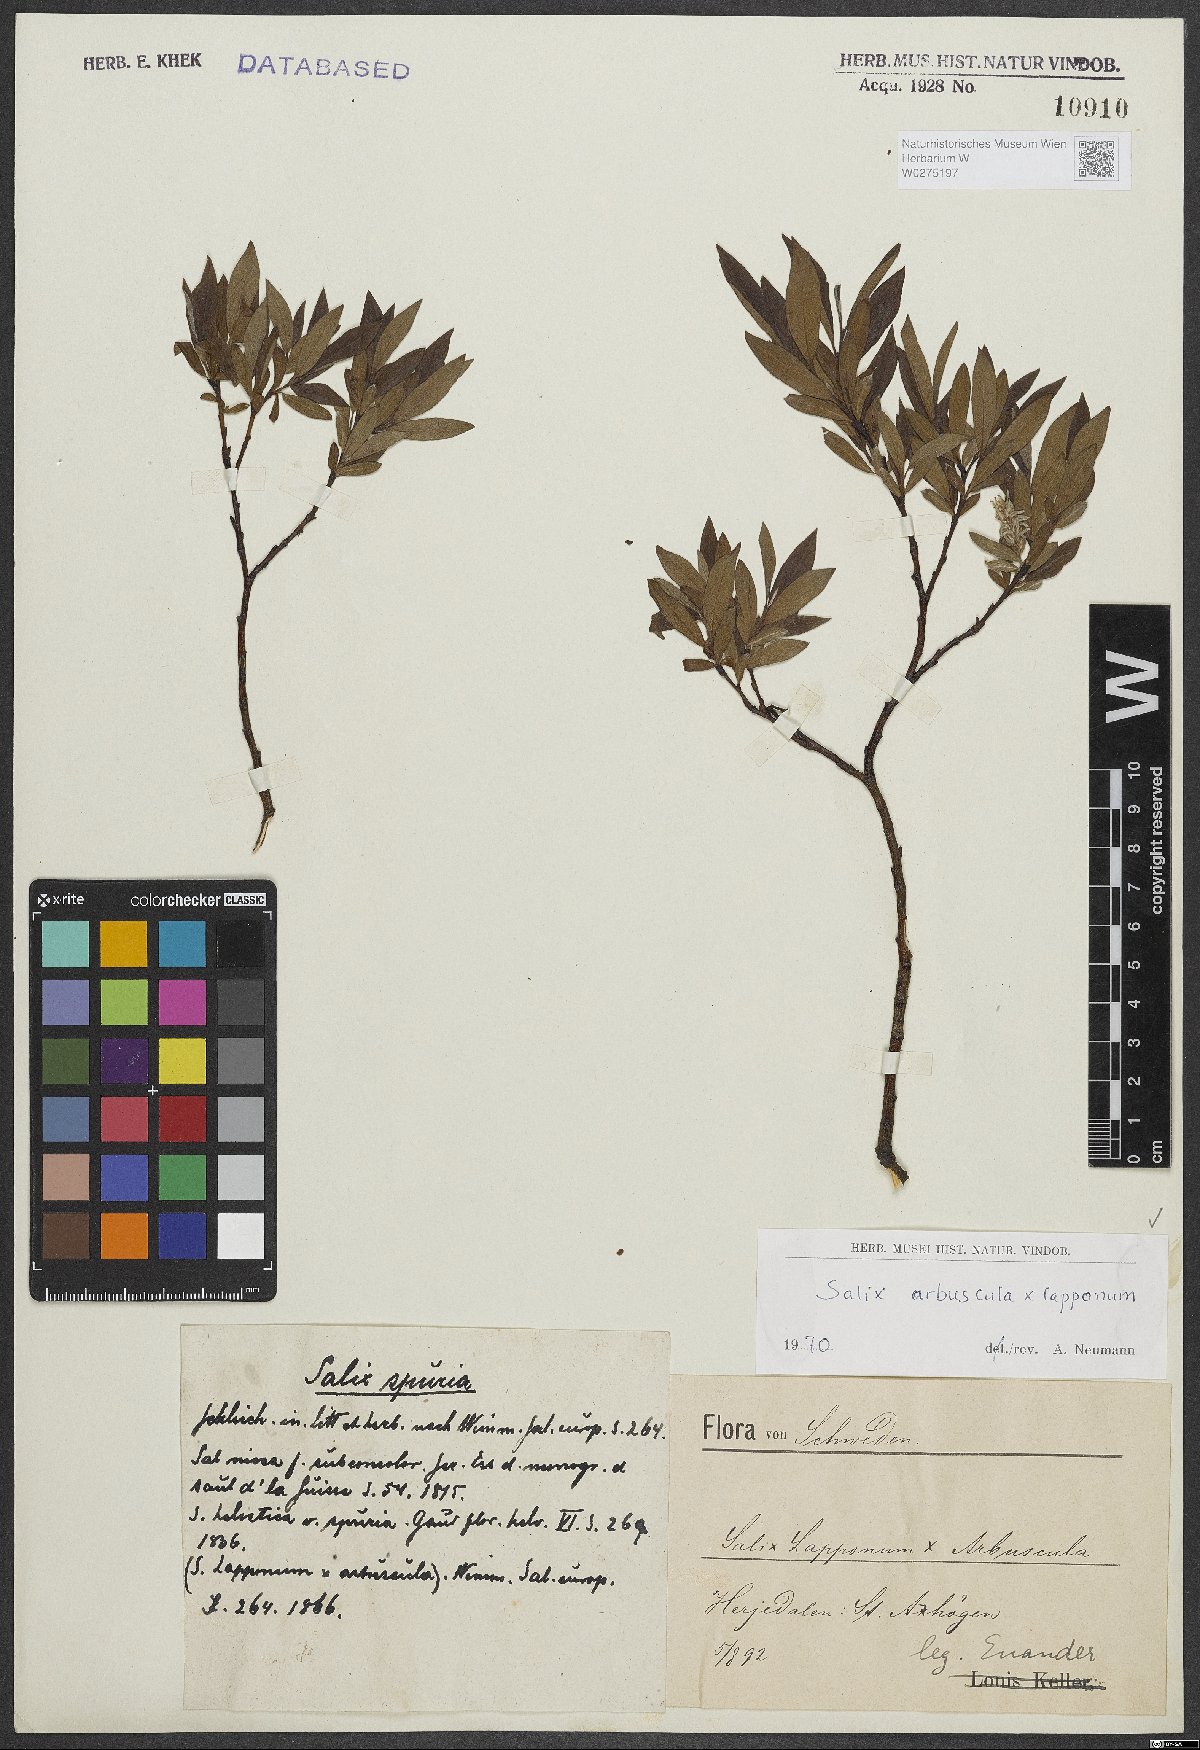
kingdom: Plantae
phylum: Tracheophyta
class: Magnoliopsida
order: Malpighiales
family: Salicaceae
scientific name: Salicaceae
